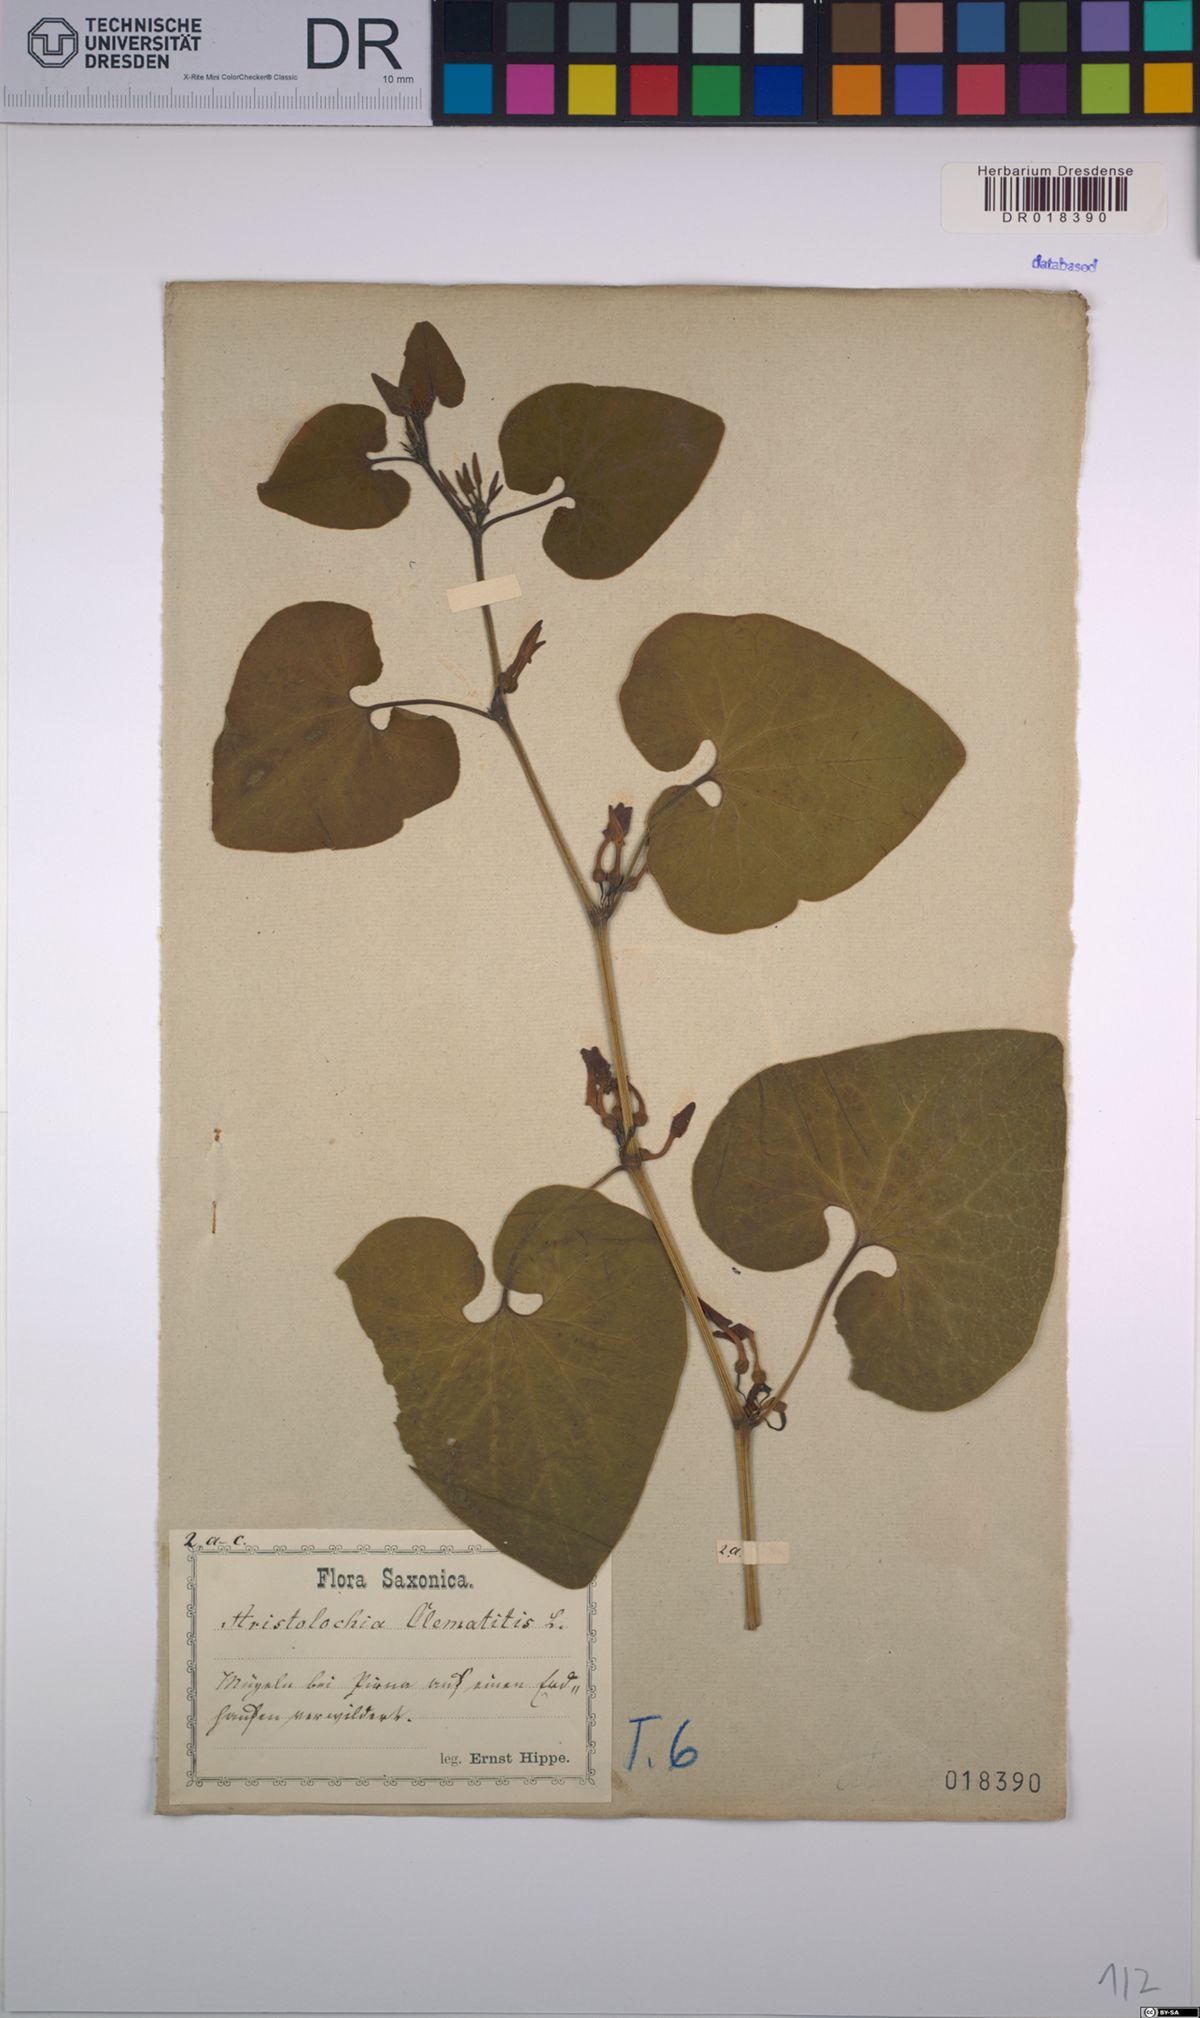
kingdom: Plantae
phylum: Tracheophyta
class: Magnoliopsida
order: Piperales
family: Aristolochiaceae
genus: Aristolochia
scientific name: Aristolochia clematitis
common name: Birthwort
